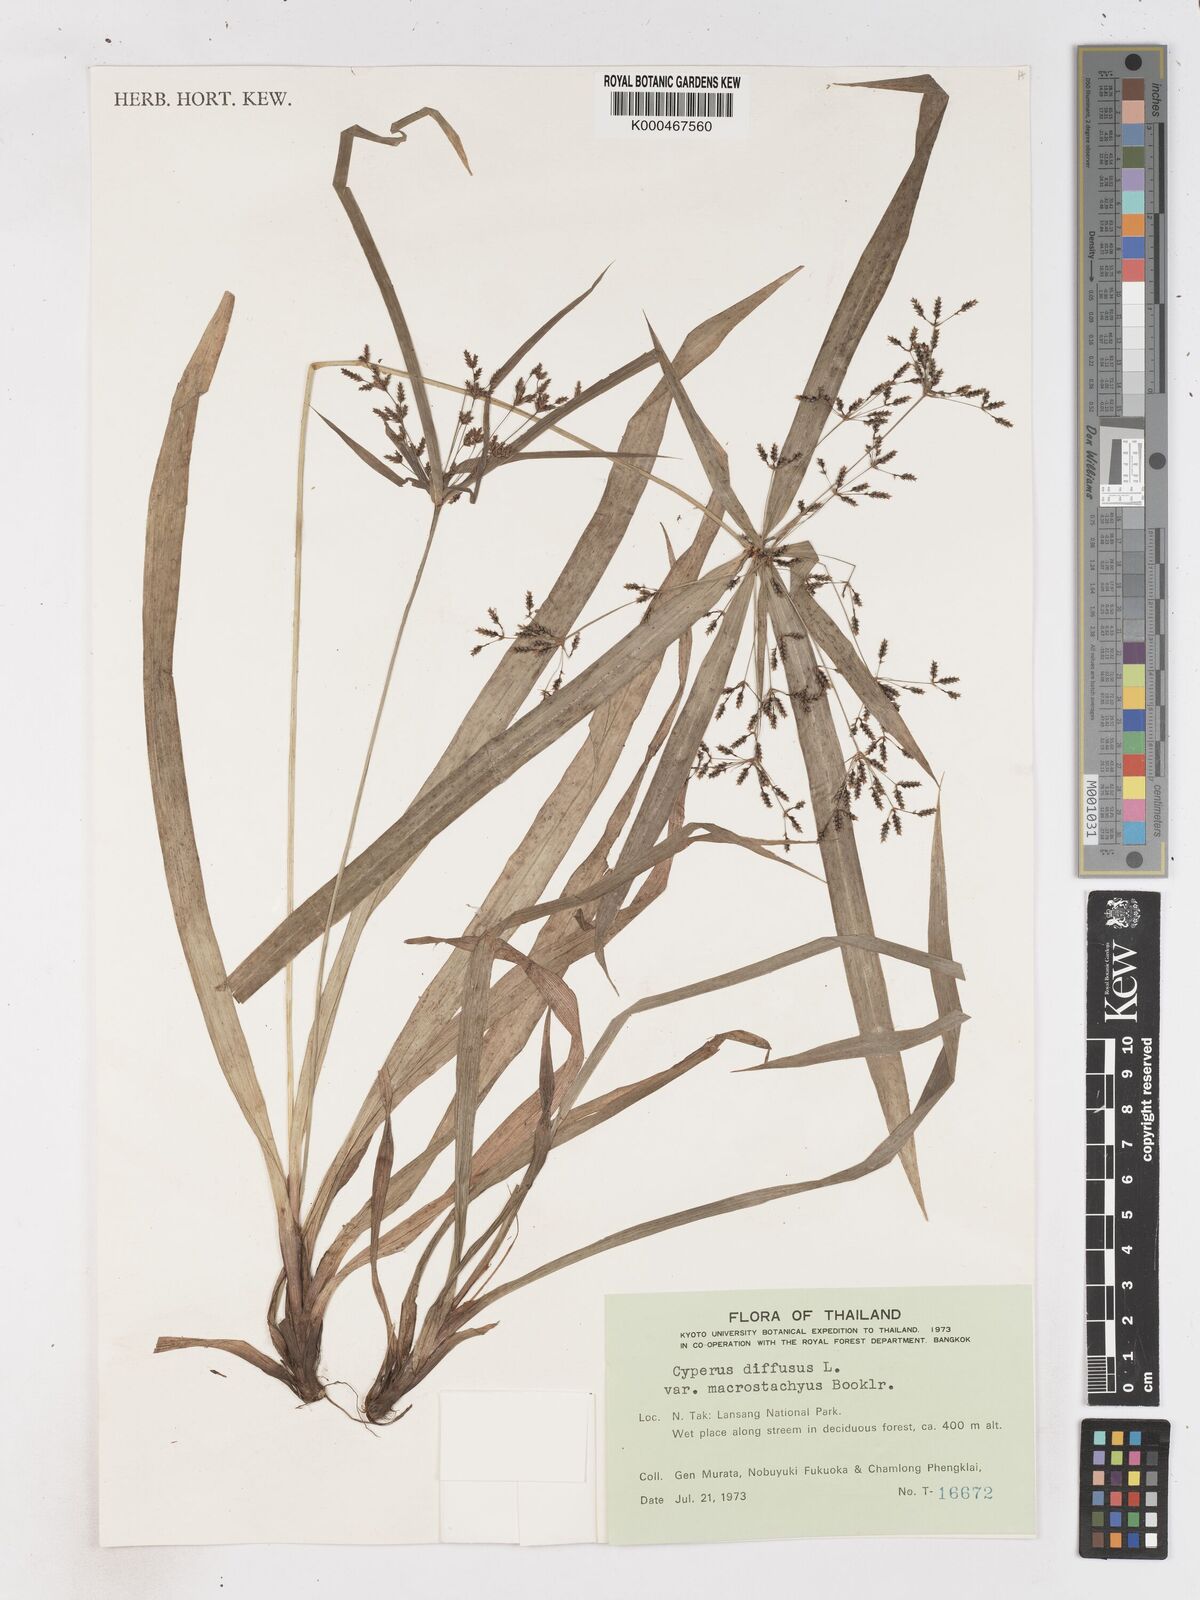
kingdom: Plantae
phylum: Tracheophyta
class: Liliopsida
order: Poales
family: Cyperaceae
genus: Cyperus
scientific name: Cyperus diffusus
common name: Dwarf umbrella grass
